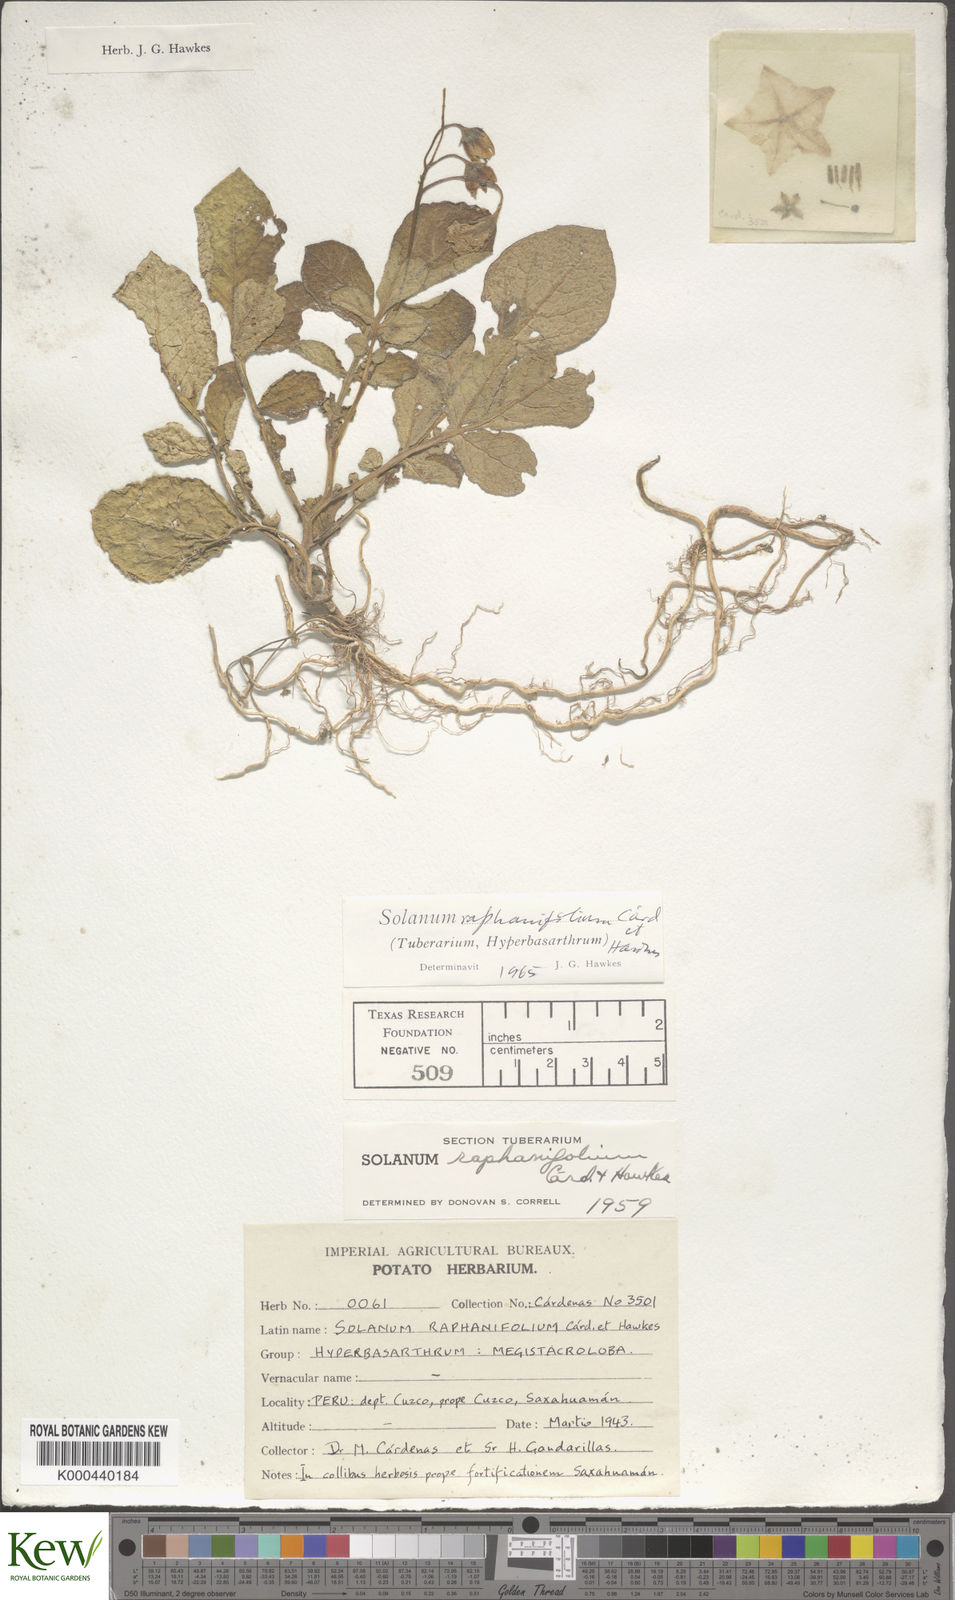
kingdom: Plantae
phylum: Tracheophyta
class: Magnoliopsida
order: Solanales
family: Solanaceae
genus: Solanum
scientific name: Solanum raphanifolium
